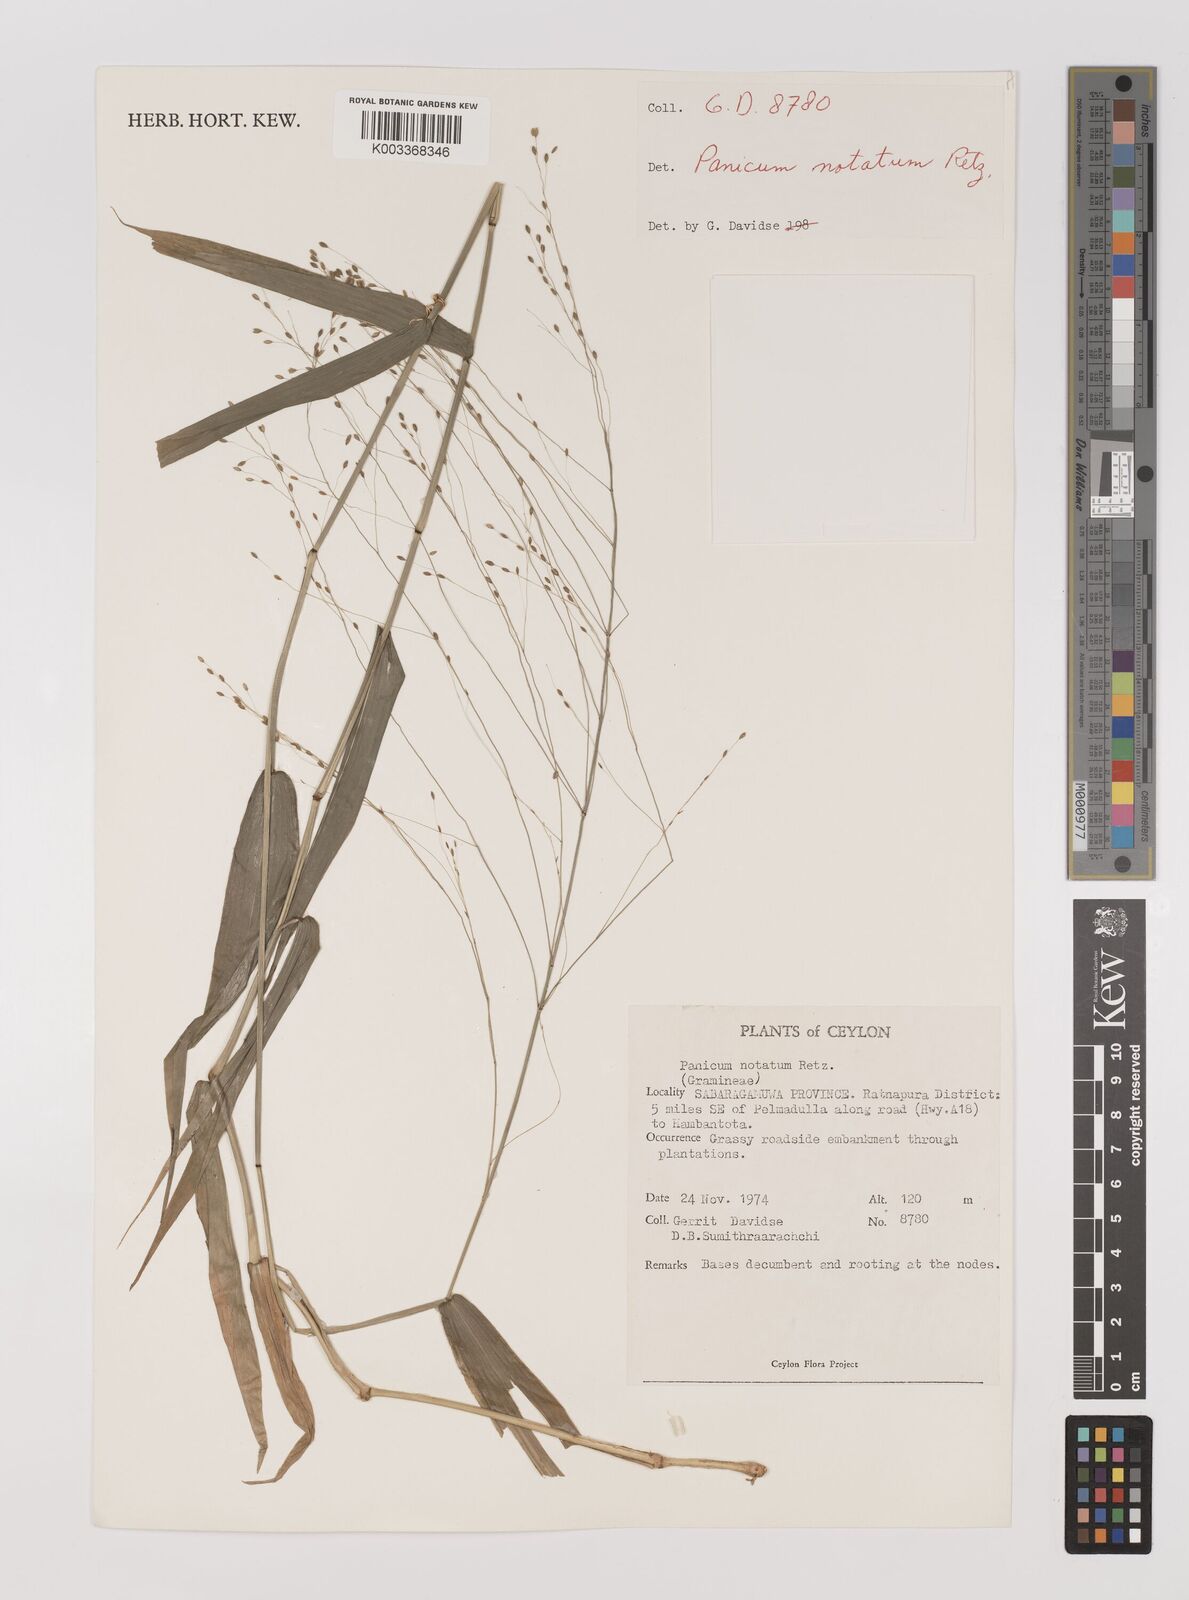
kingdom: Plantae
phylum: Tracheophyta
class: Liliopsida
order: Poales
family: Poaceae
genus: Panicum
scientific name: Panicum notatum
